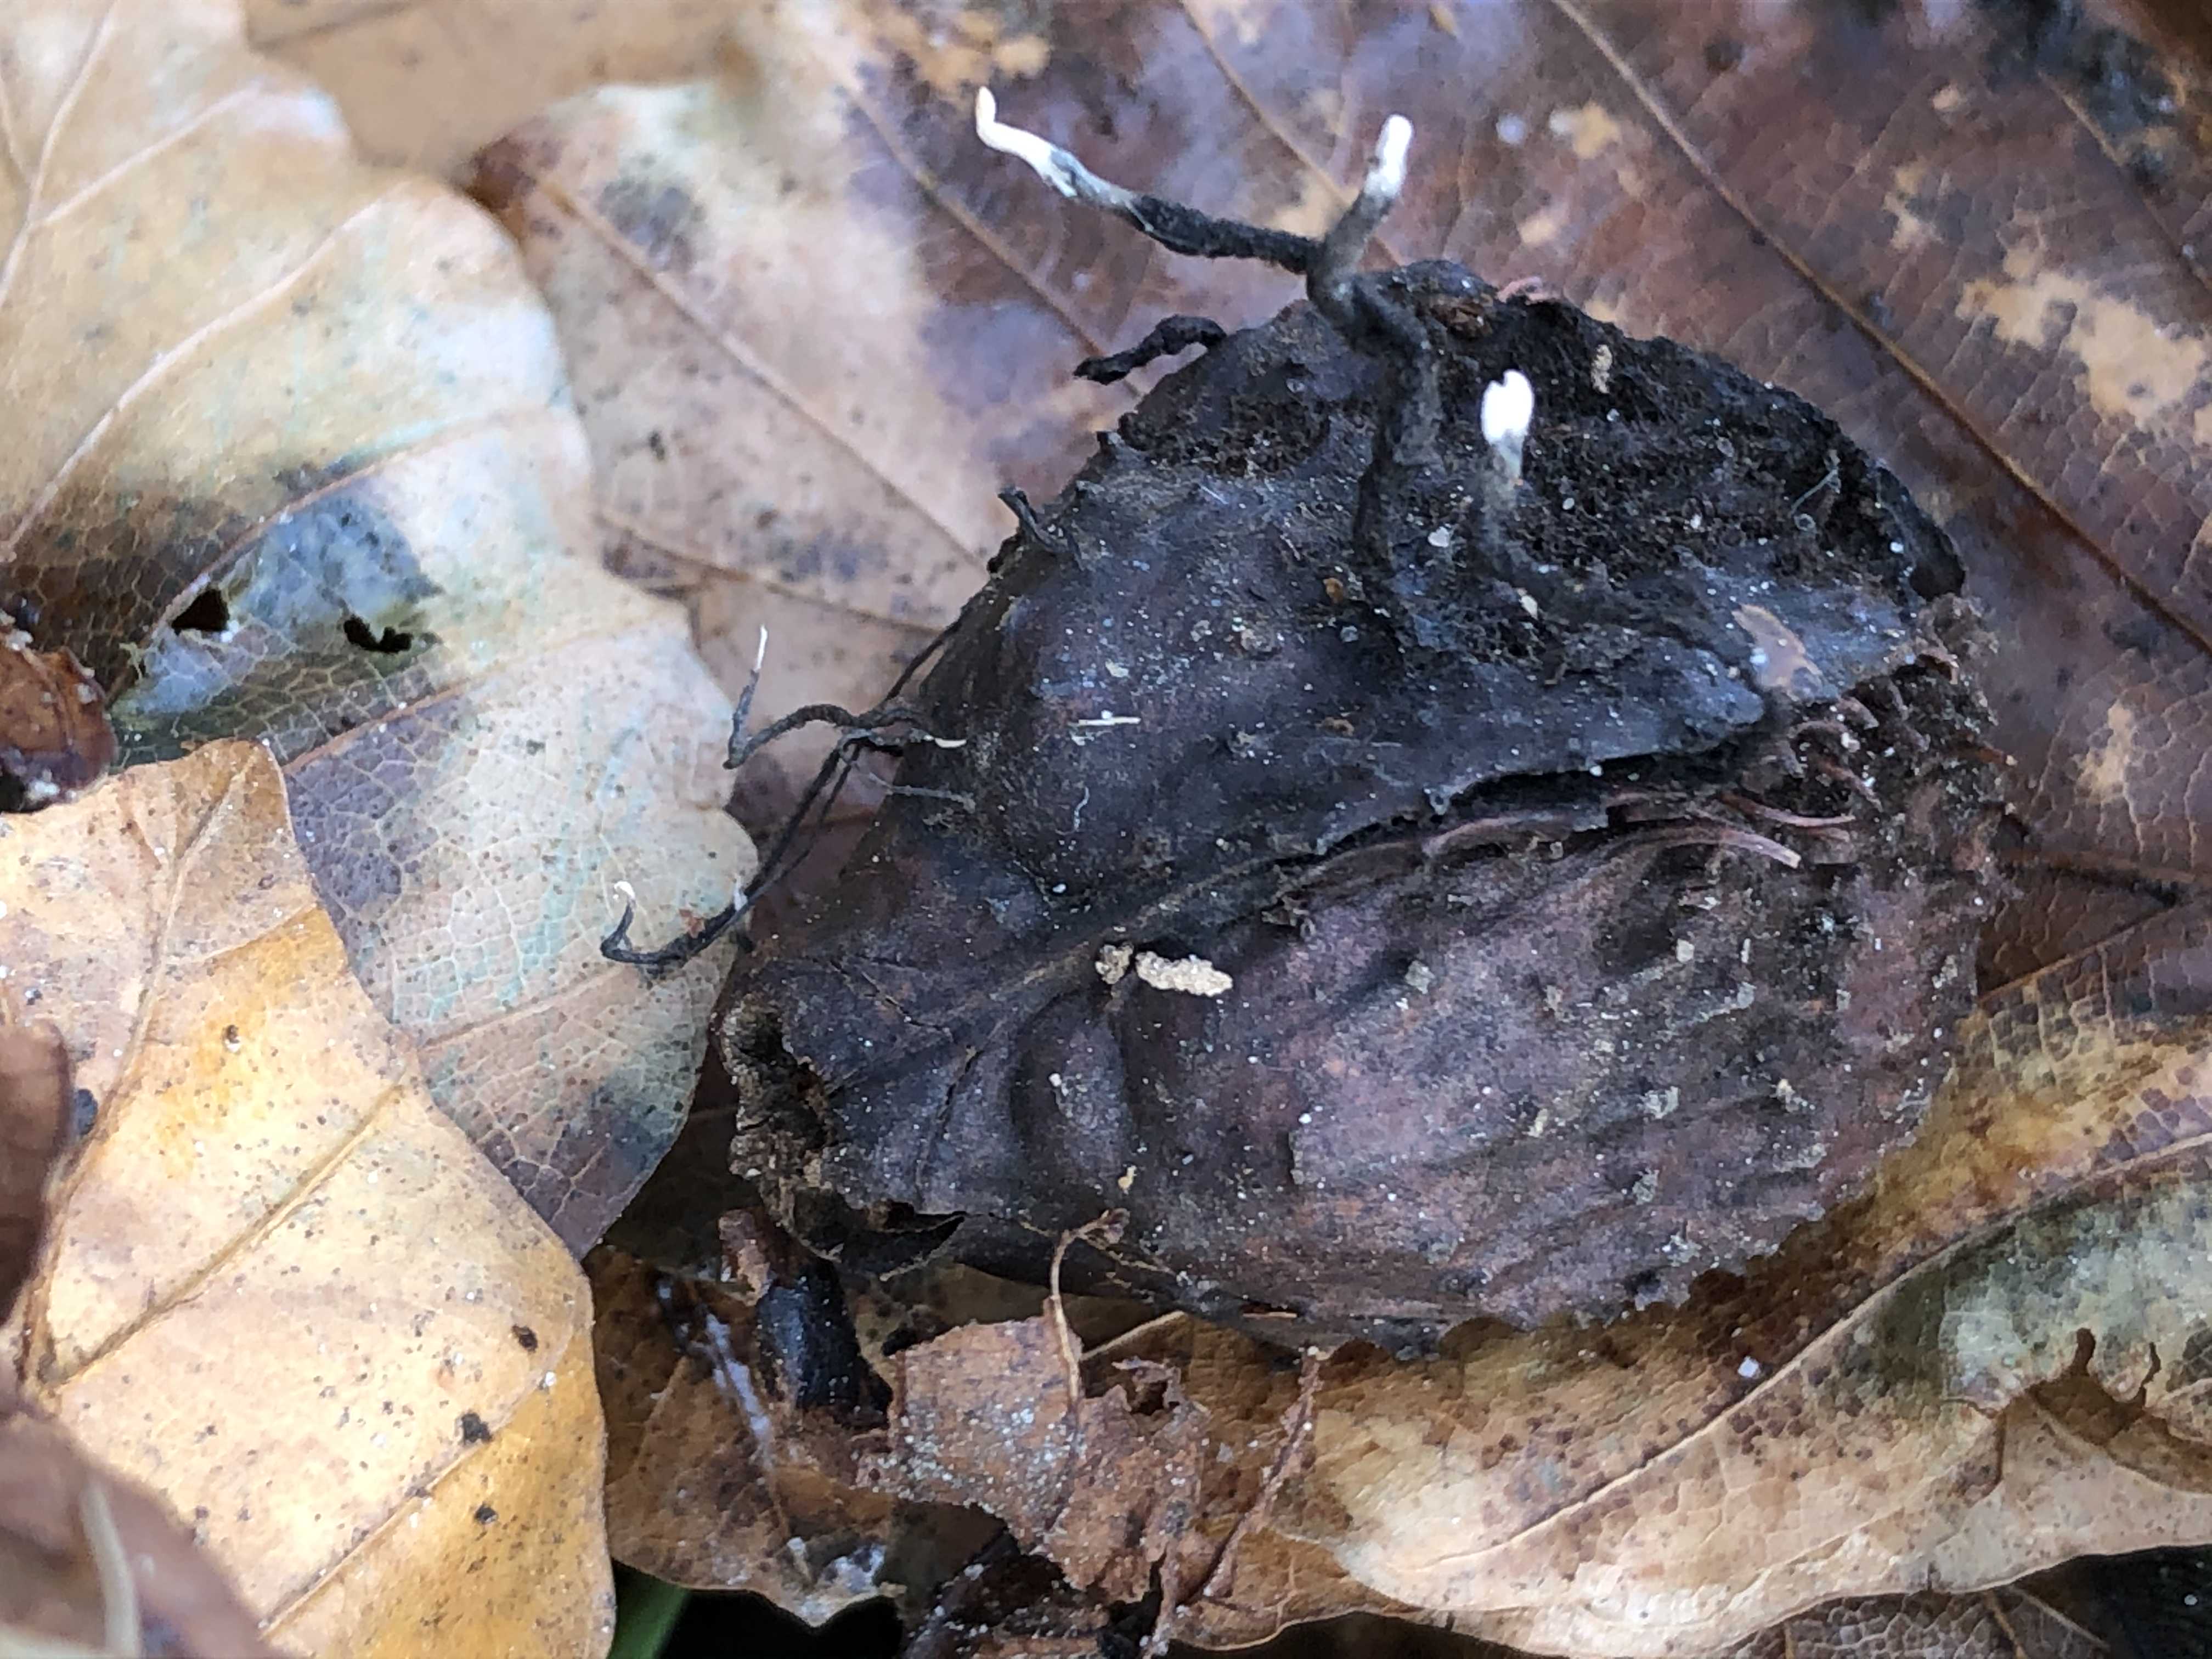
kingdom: Fungi
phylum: Ascomycota
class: Sordariomycetes
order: Xylariales
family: Xylariaceae
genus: Xylaria
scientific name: Xylaria carpophila
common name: bogskål-stødsvamp
